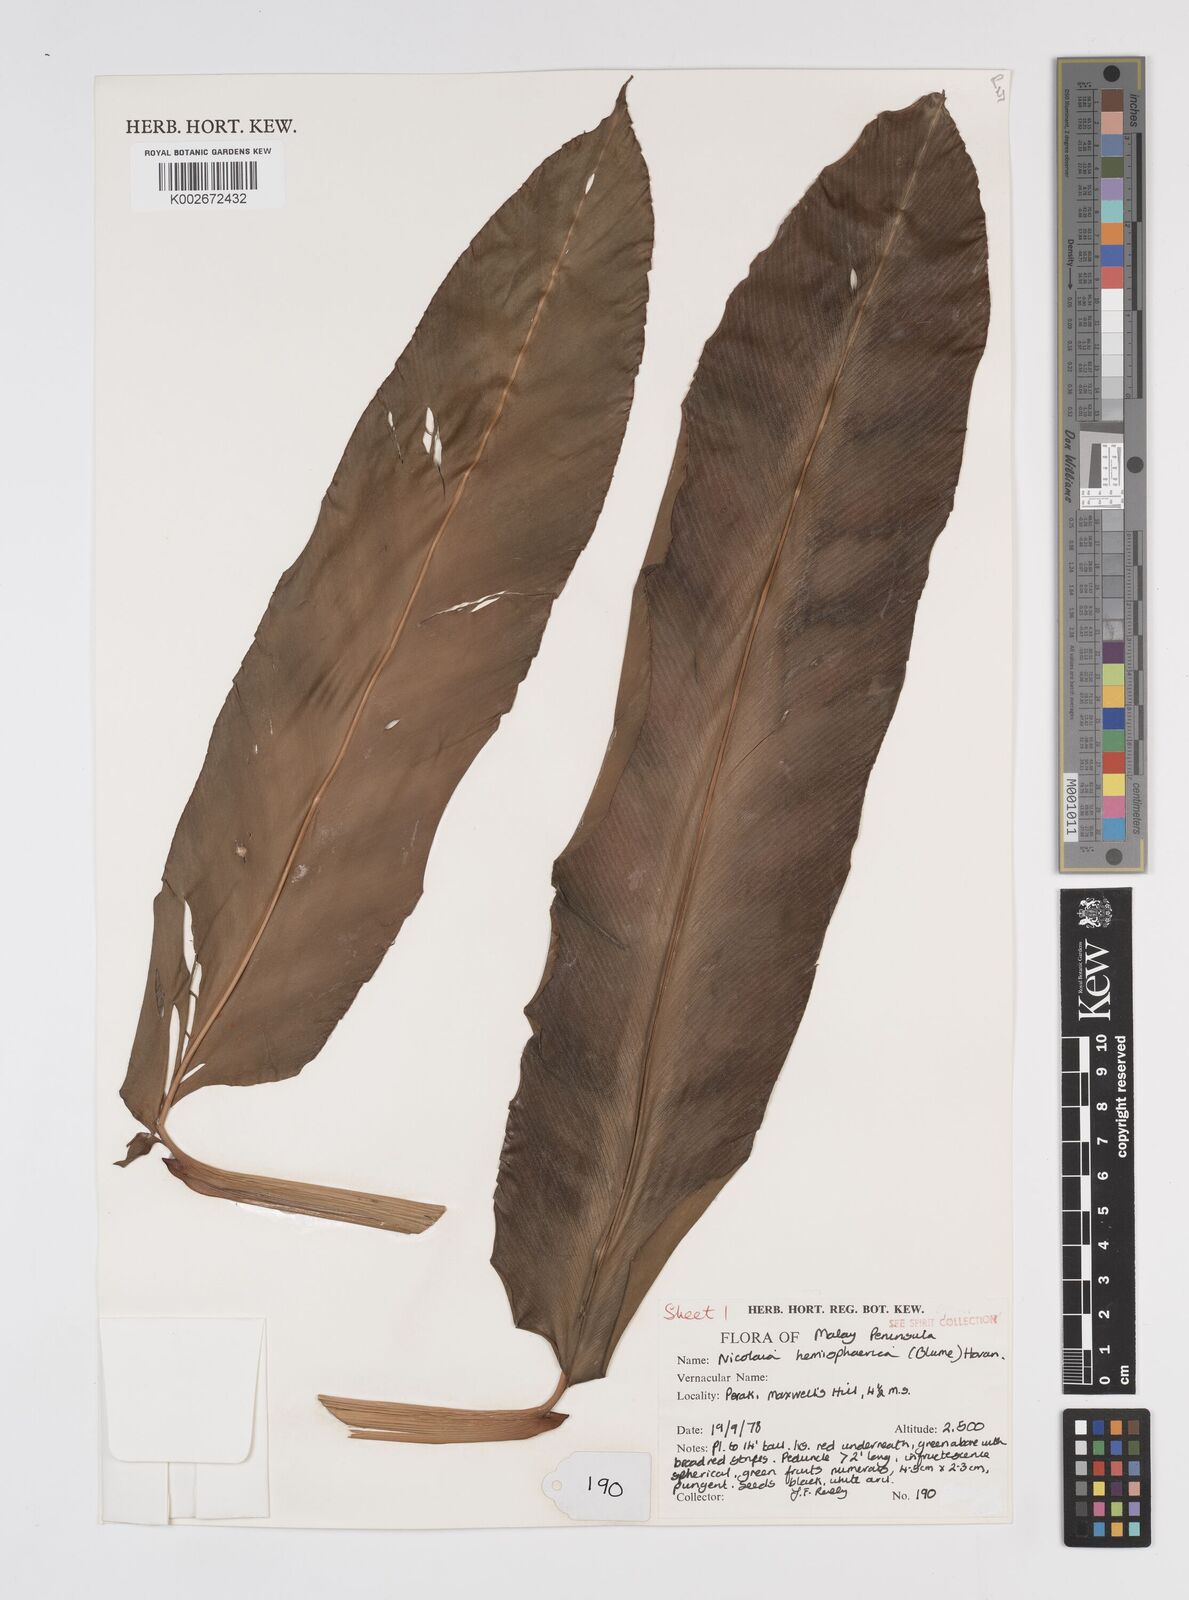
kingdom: Plantae
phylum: Tracheophyta
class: Liliopsida
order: Zingiberales
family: Zingiberaceae
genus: Etlingera
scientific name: Etlingera fulgens
